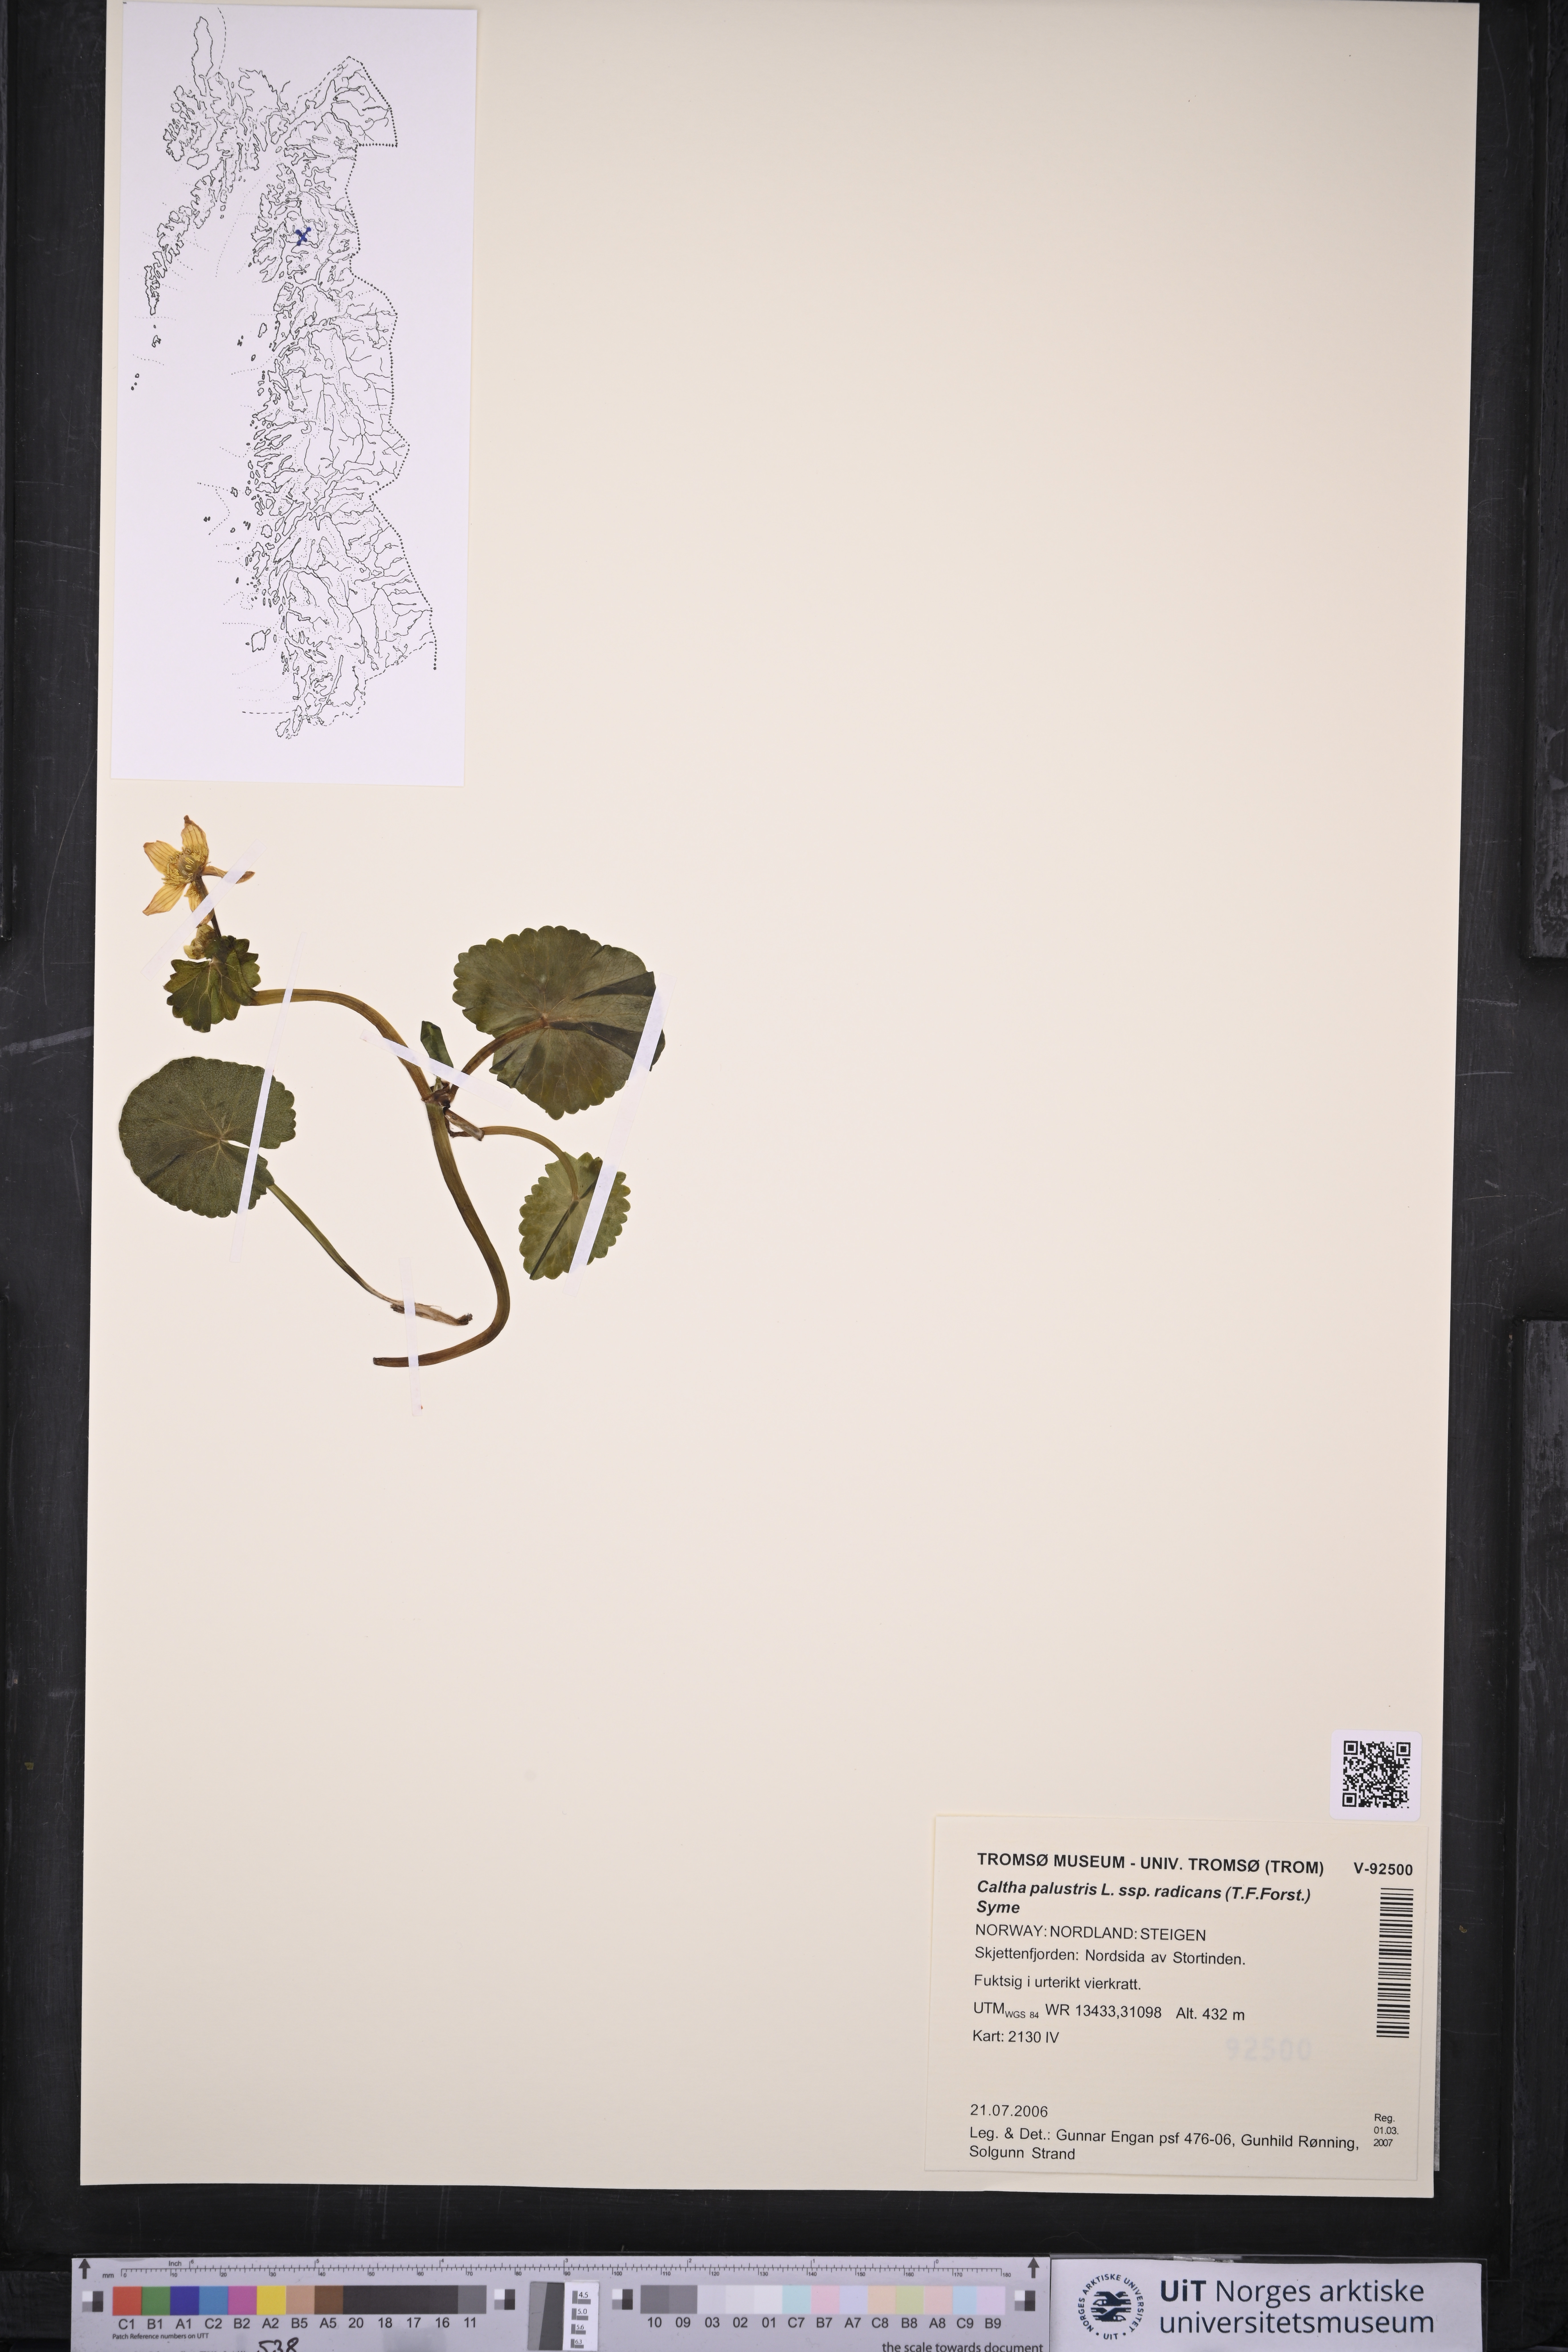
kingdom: Plantae
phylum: Tracheophyta
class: Magnoliopsida
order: Ranunculales
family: Ranunculaceae
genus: Caltha
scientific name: Caltha palustris
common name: Marsh marigold
